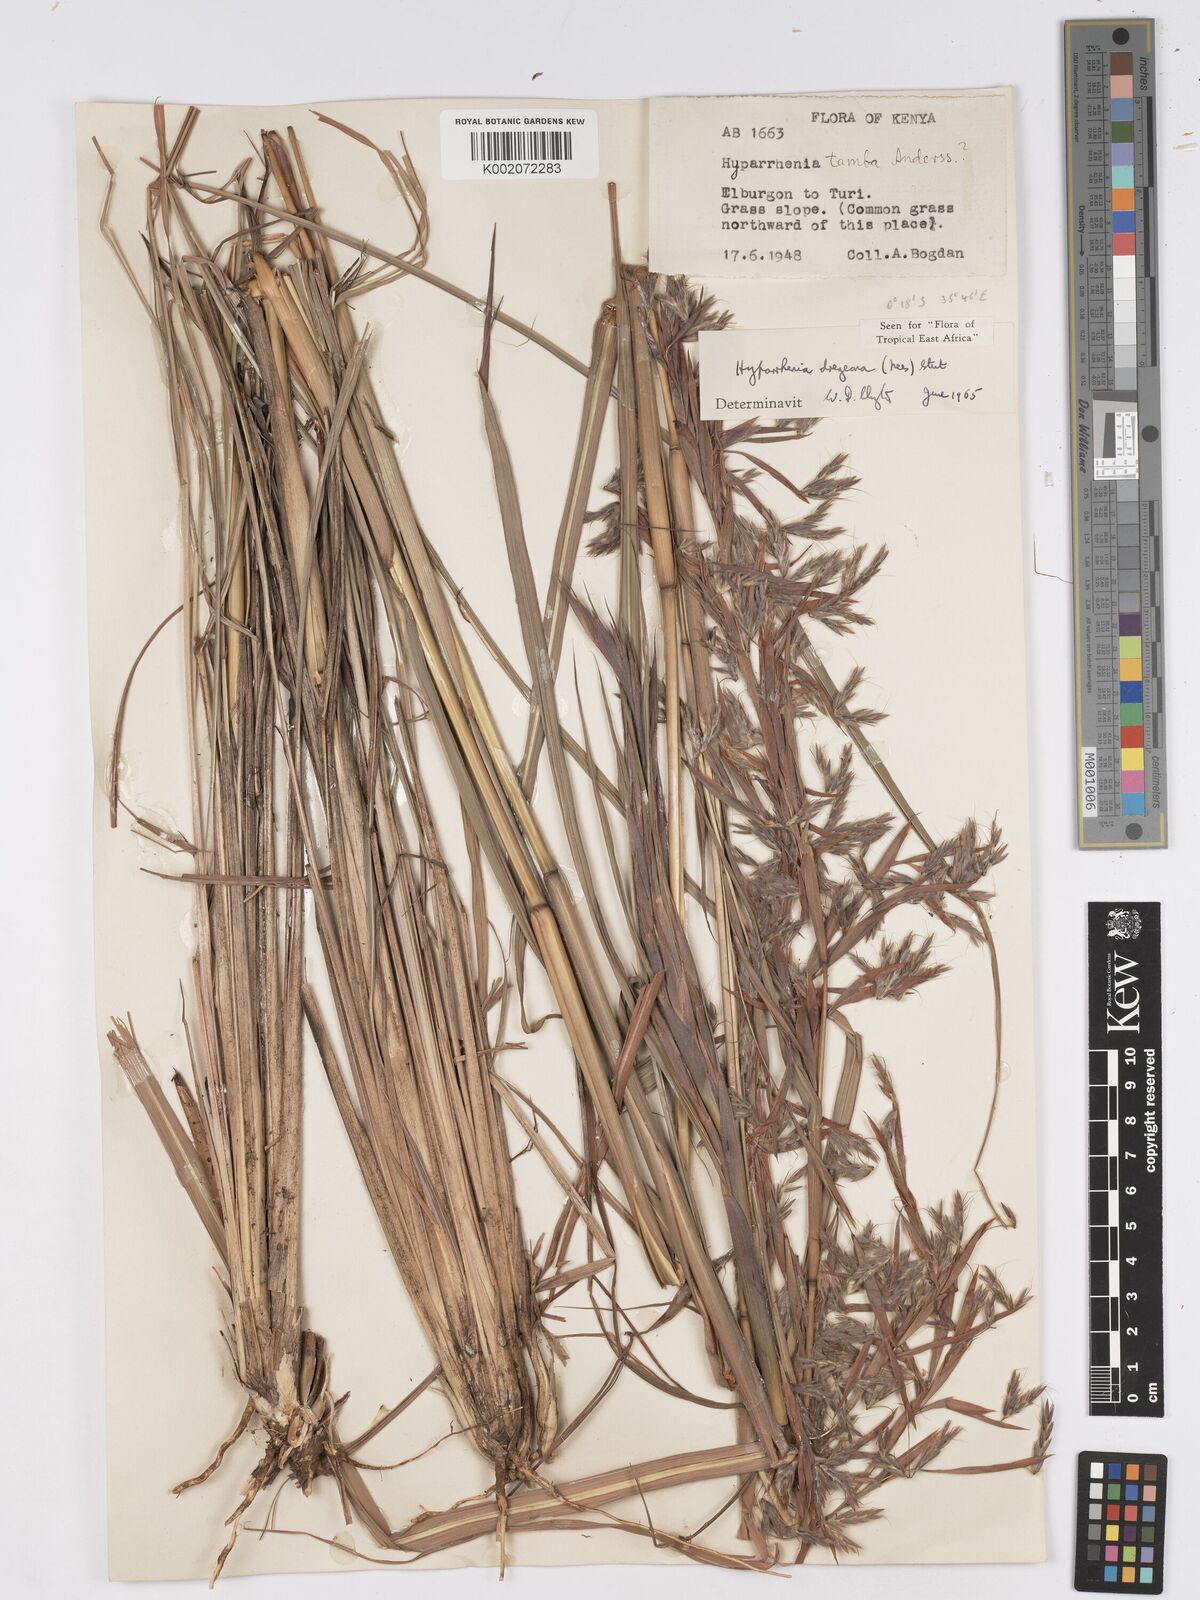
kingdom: Plantae
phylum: Tracheophyta
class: Liliopsida
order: Poales
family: Poaceae
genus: Hyparrhenia
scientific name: Hyparrhenia dregeana
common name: Silky thatching grass
